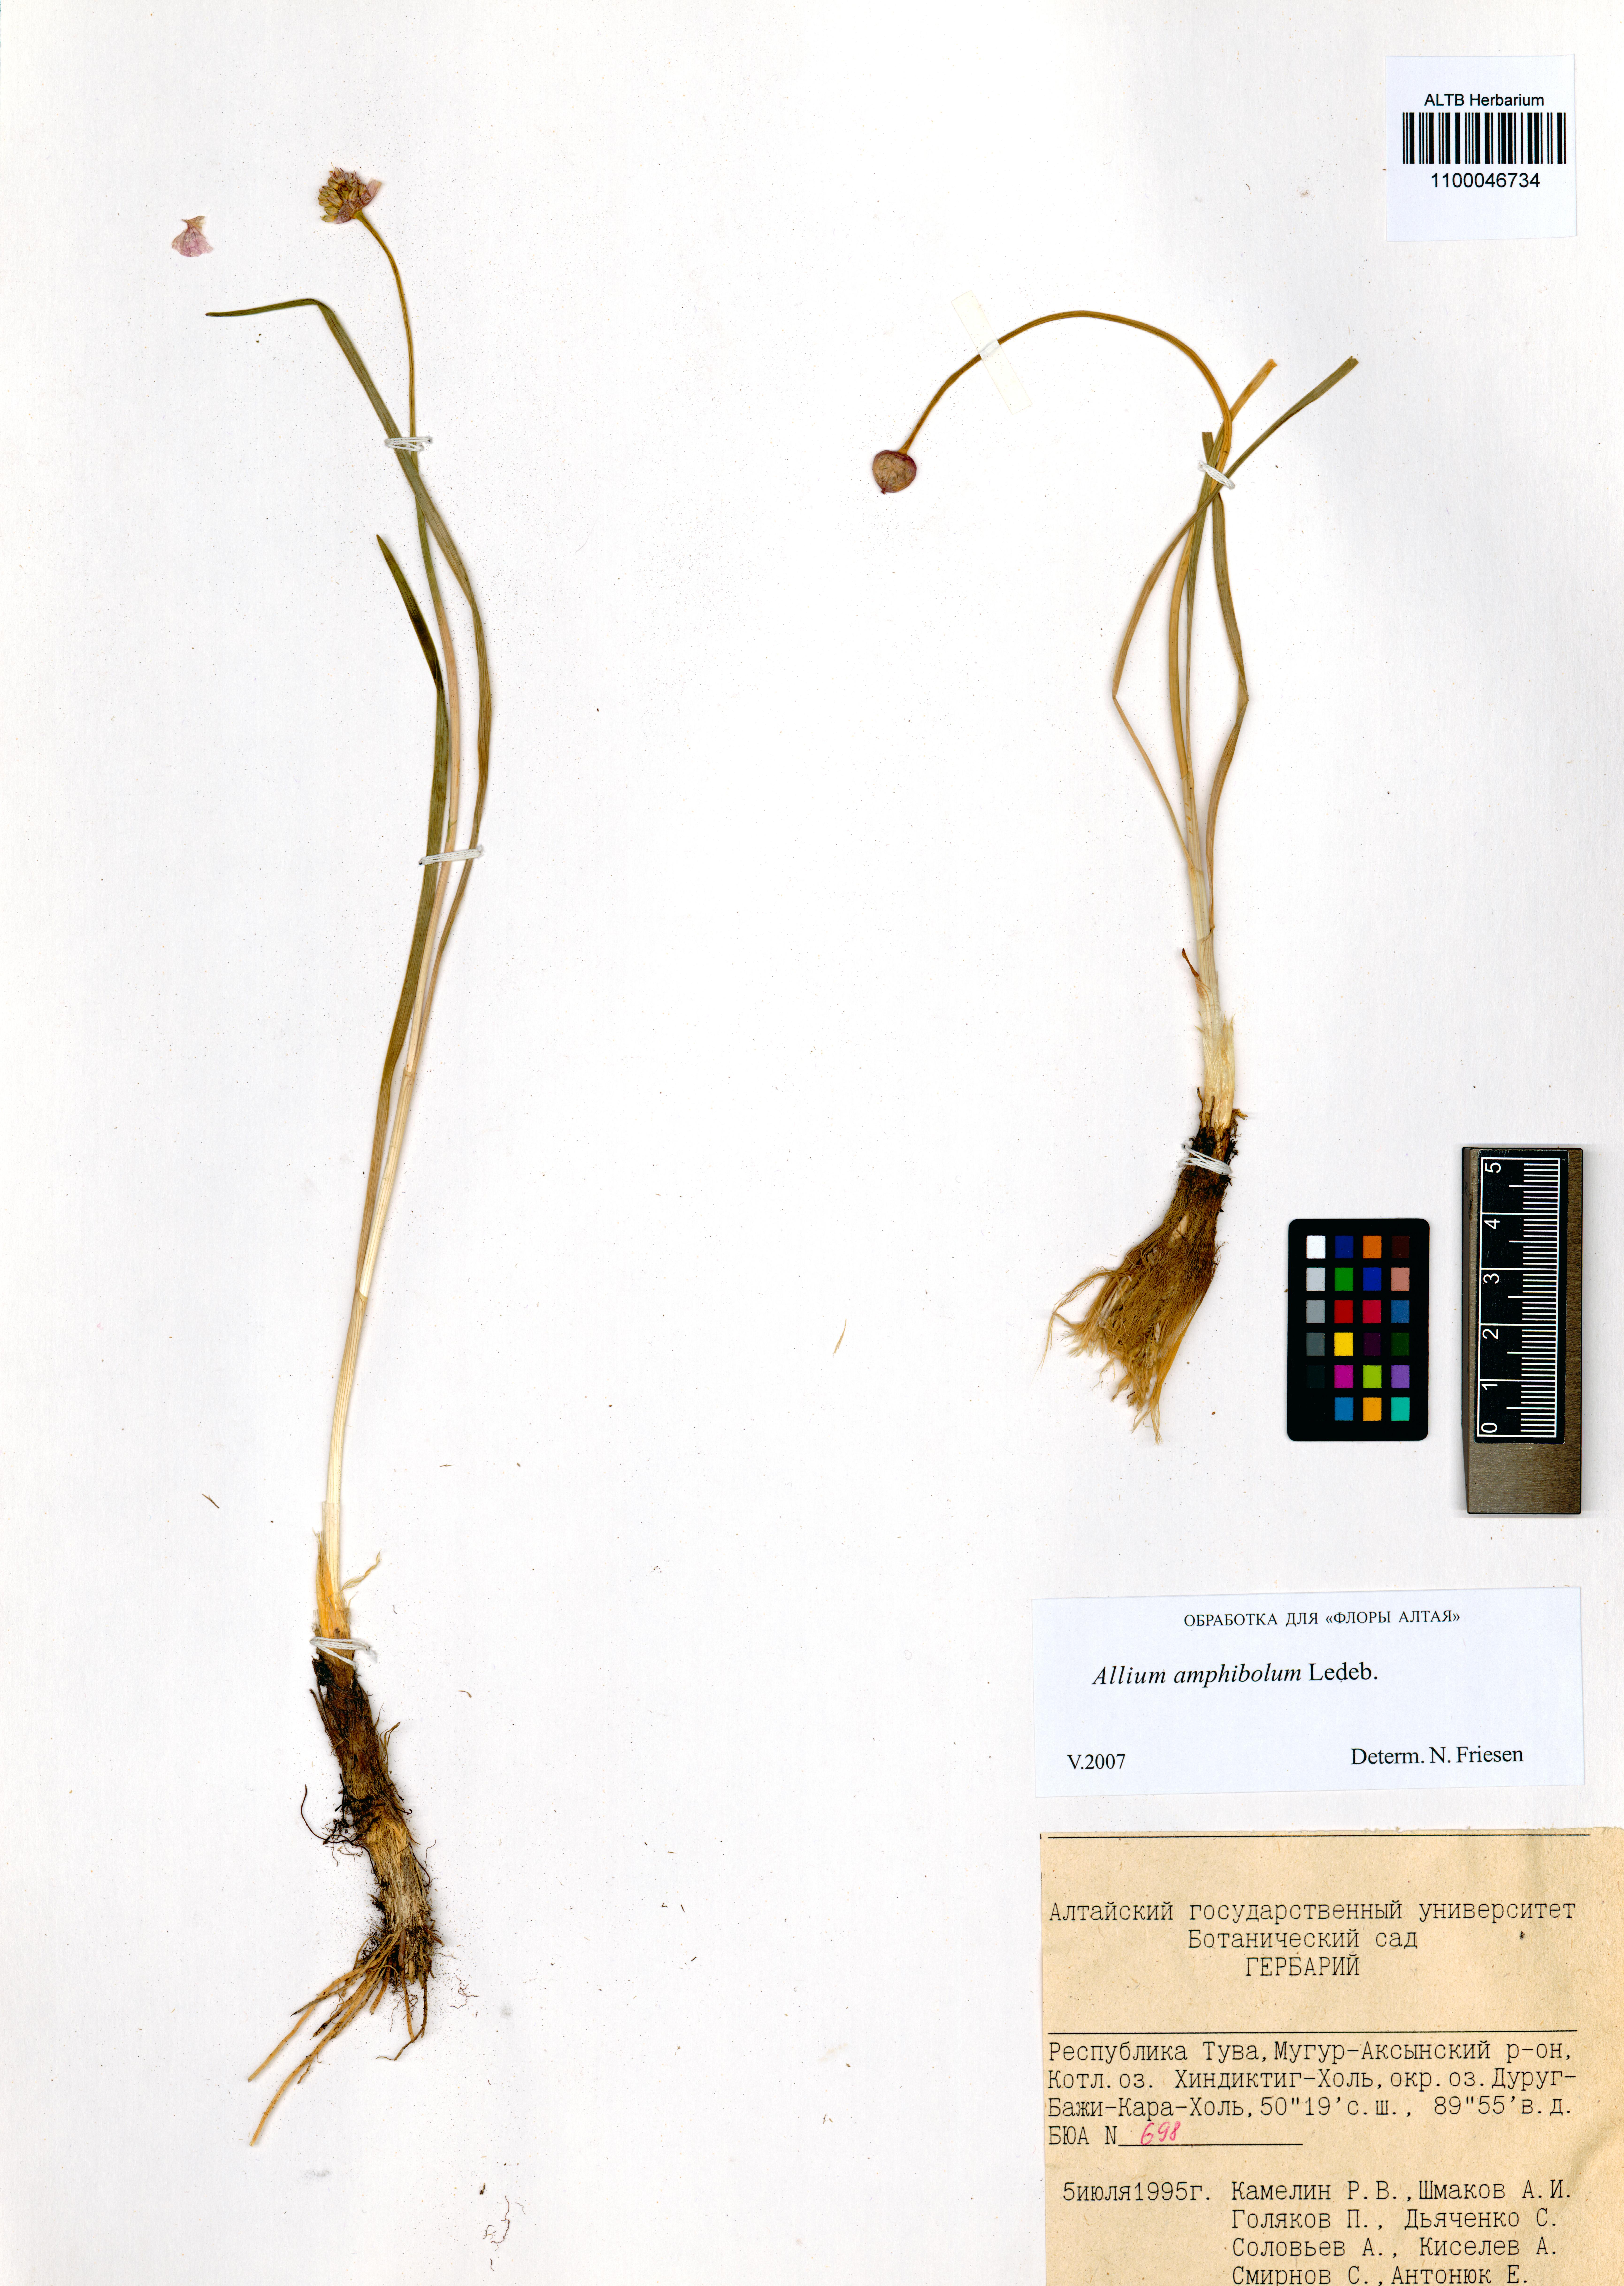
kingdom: Plantae
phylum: Tracheophyta
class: Liliopsida
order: Asparagales
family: Amaryllidaceae
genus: Allium
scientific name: Allium amphibolum
